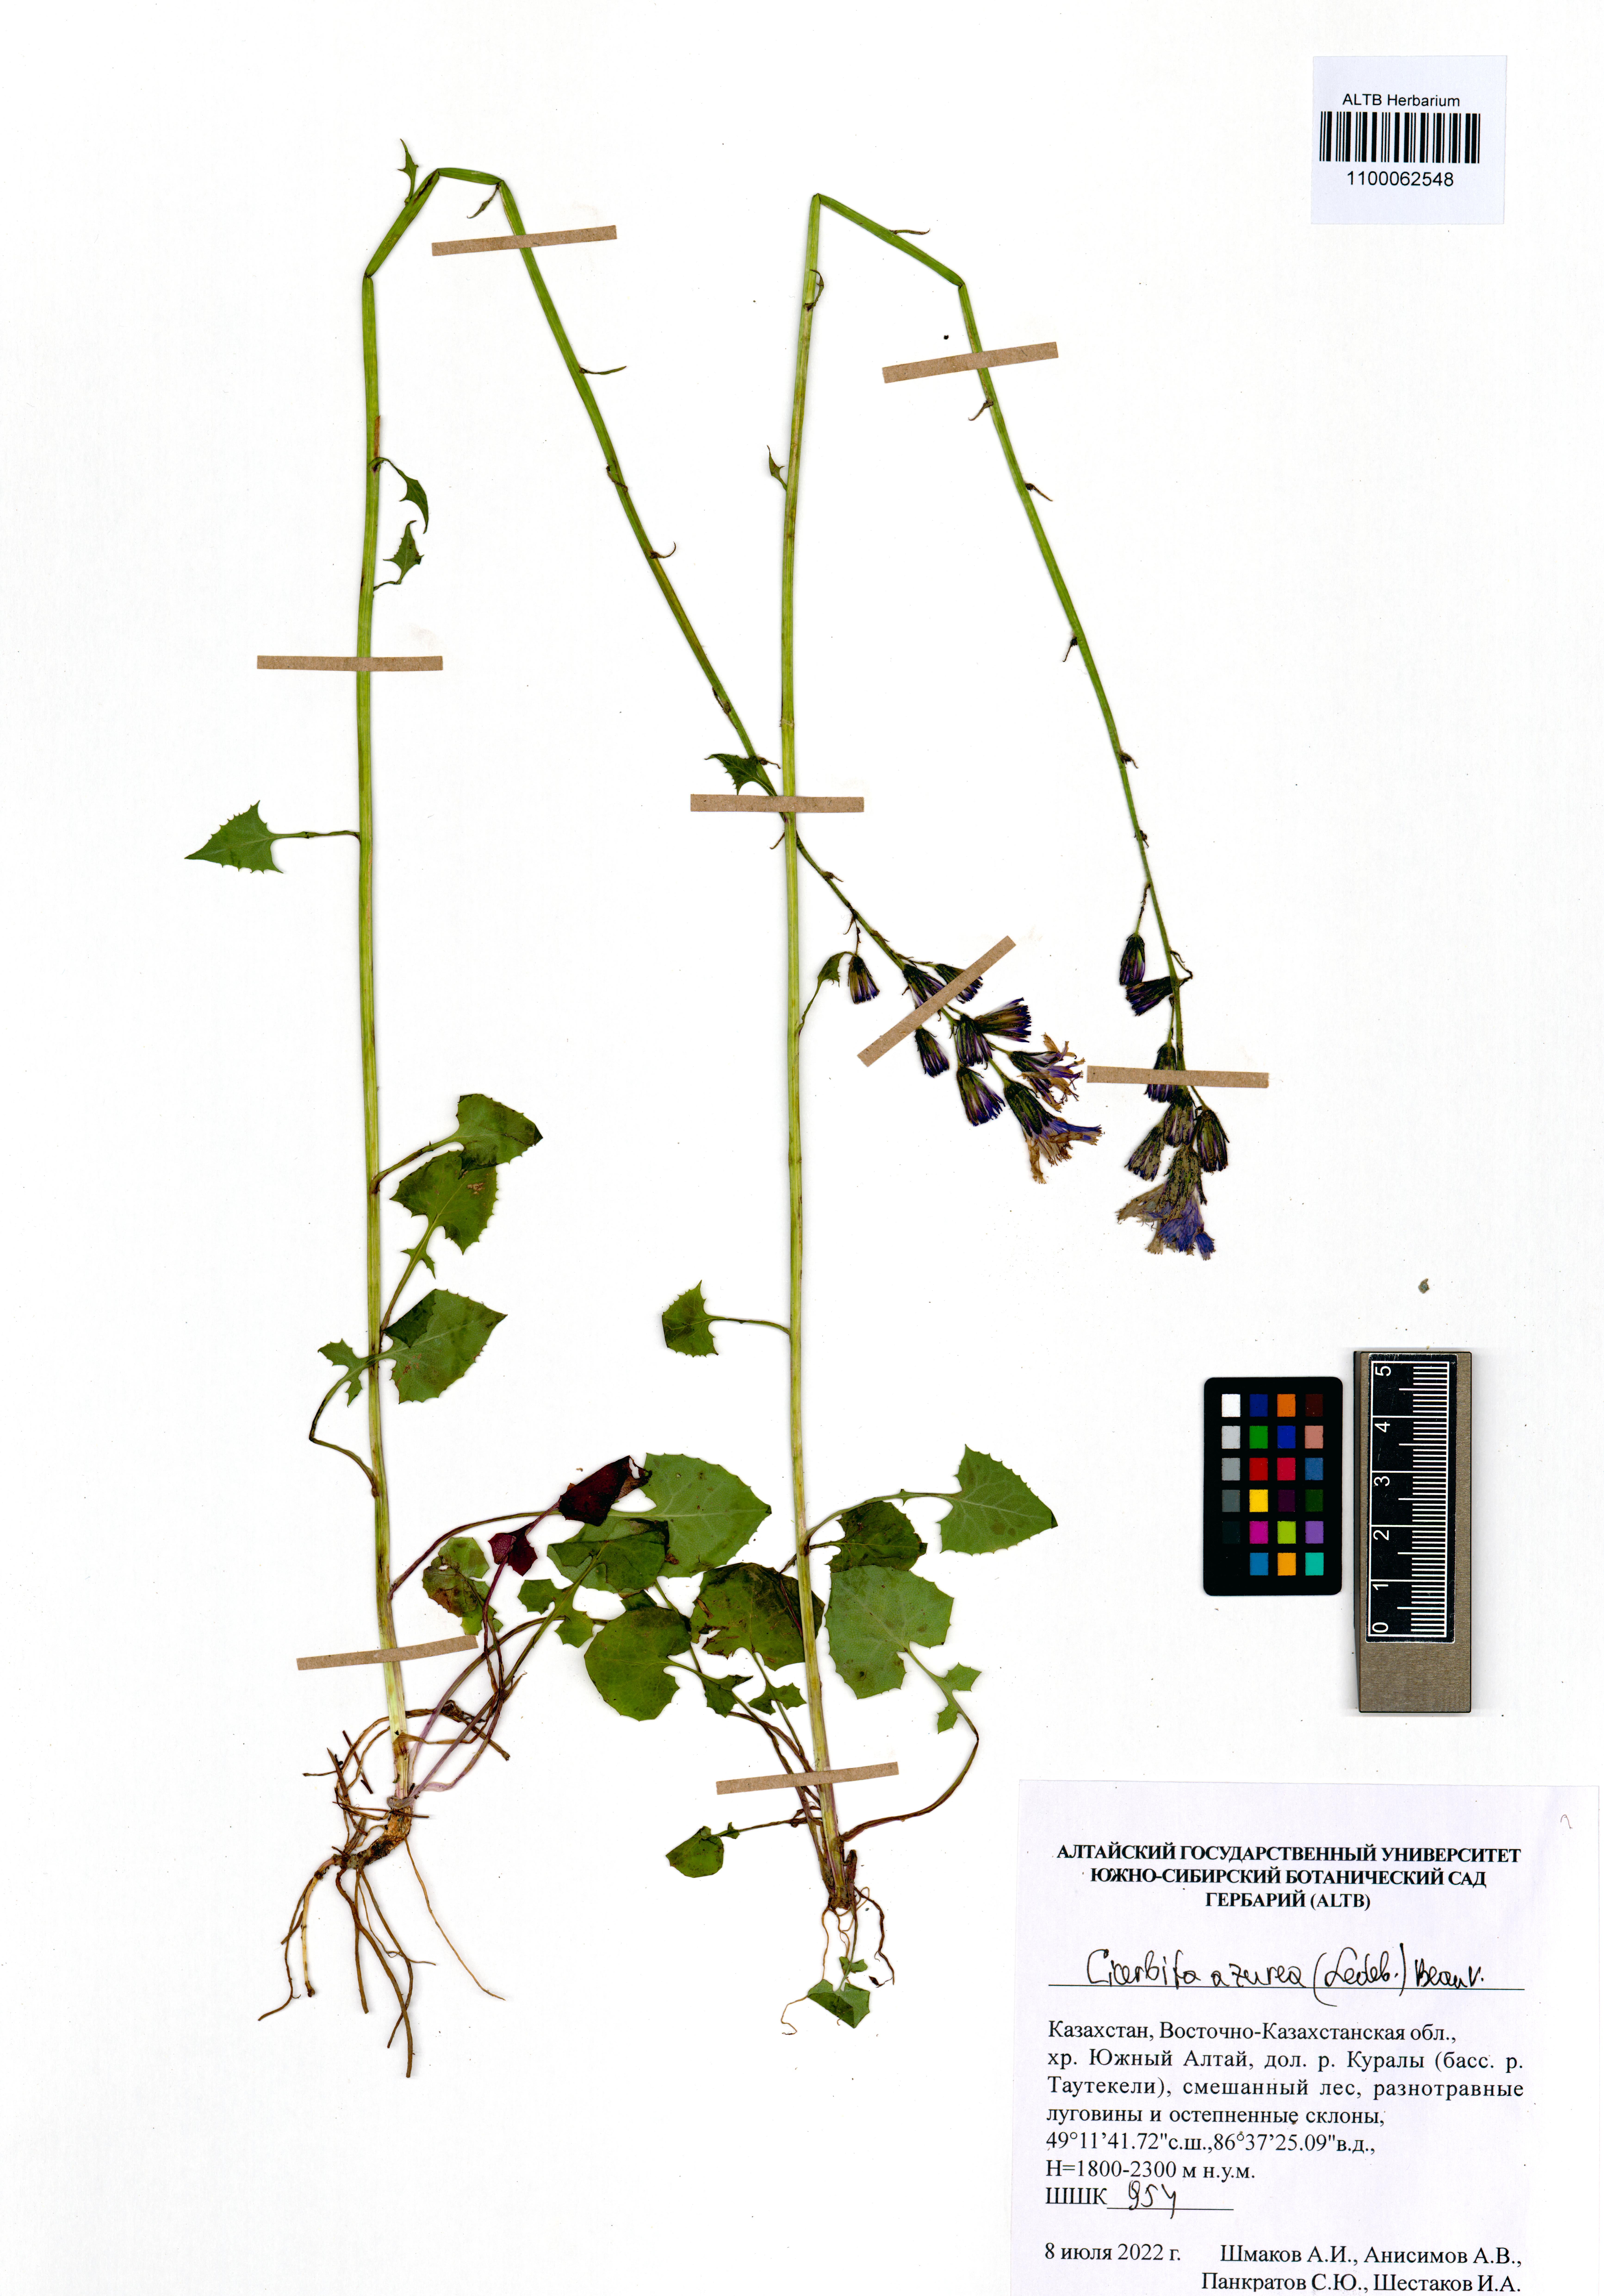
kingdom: Plantae
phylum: Tracheophyta
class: Magnoliopsida
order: Asterales
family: Asteraceae
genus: Cicerbita
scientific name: Cicerbita azurea
